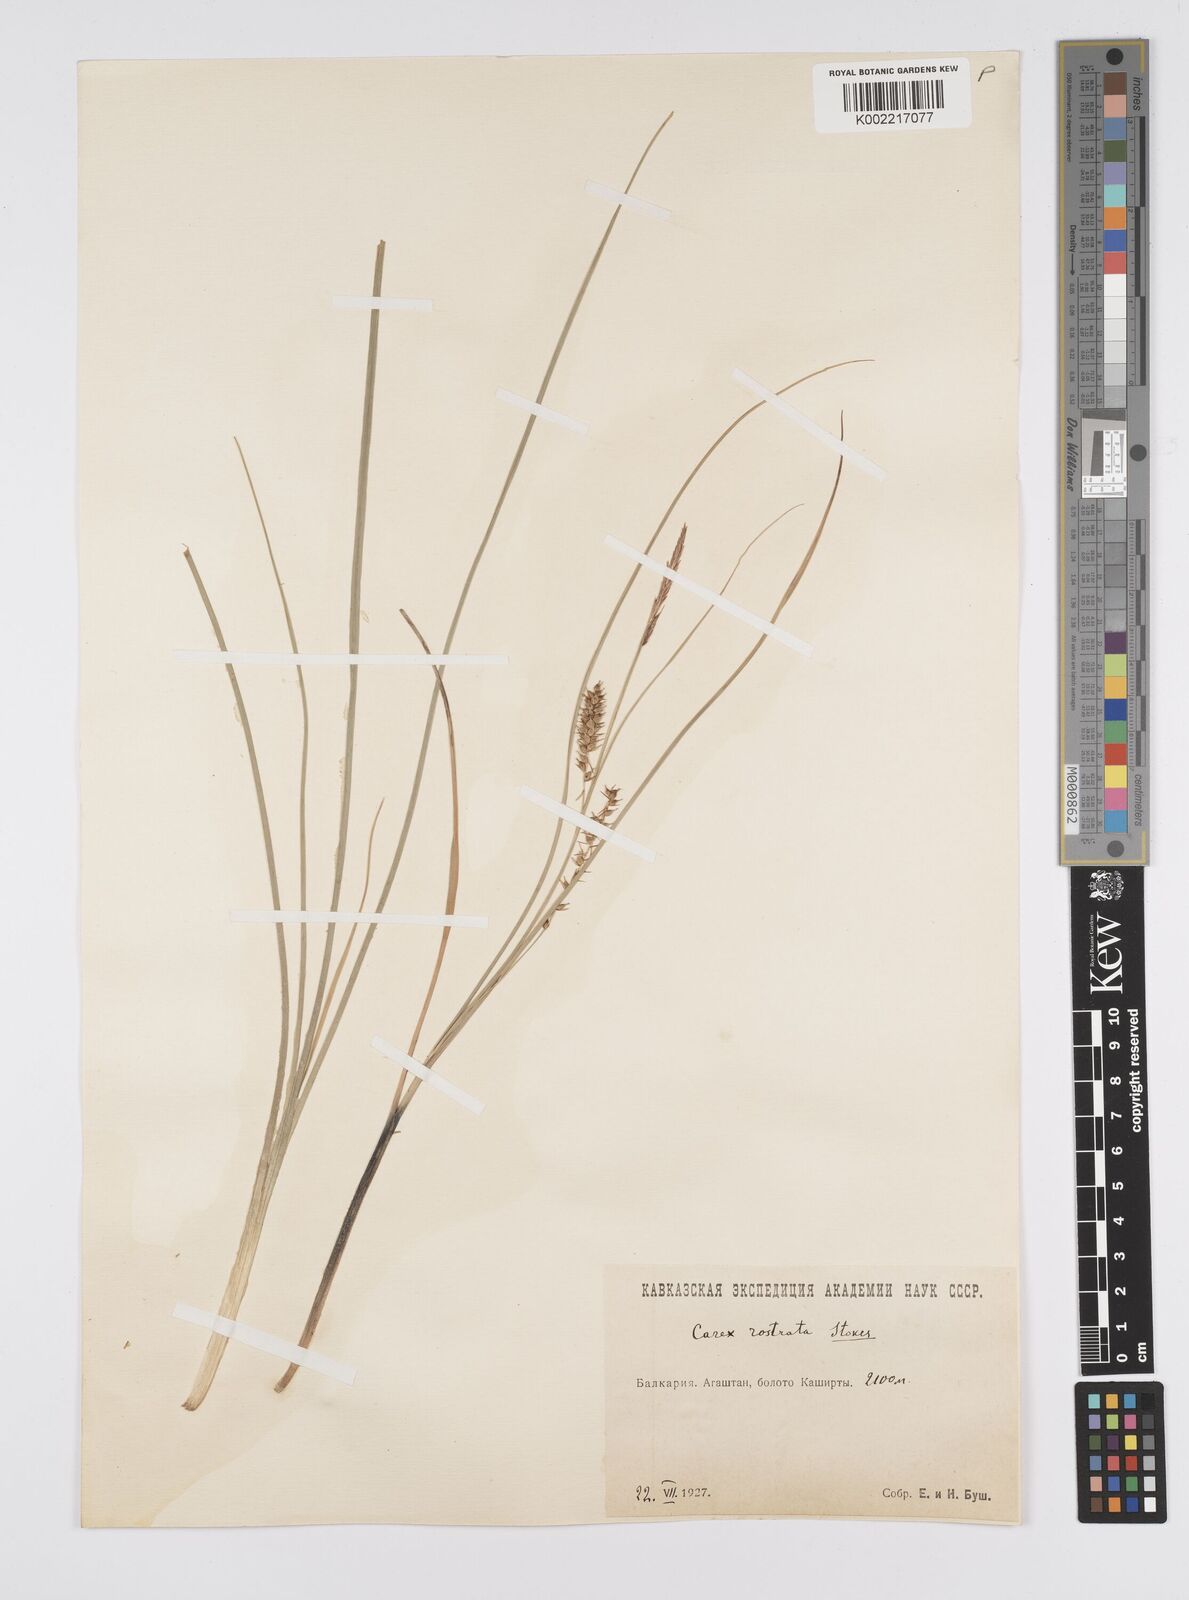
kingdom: Plantae
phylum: Tracheophyta
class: Liliopsida
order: Poales
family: Cyperaceae
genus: Carex
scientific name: Carex rostrata
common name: Bottle sedge
